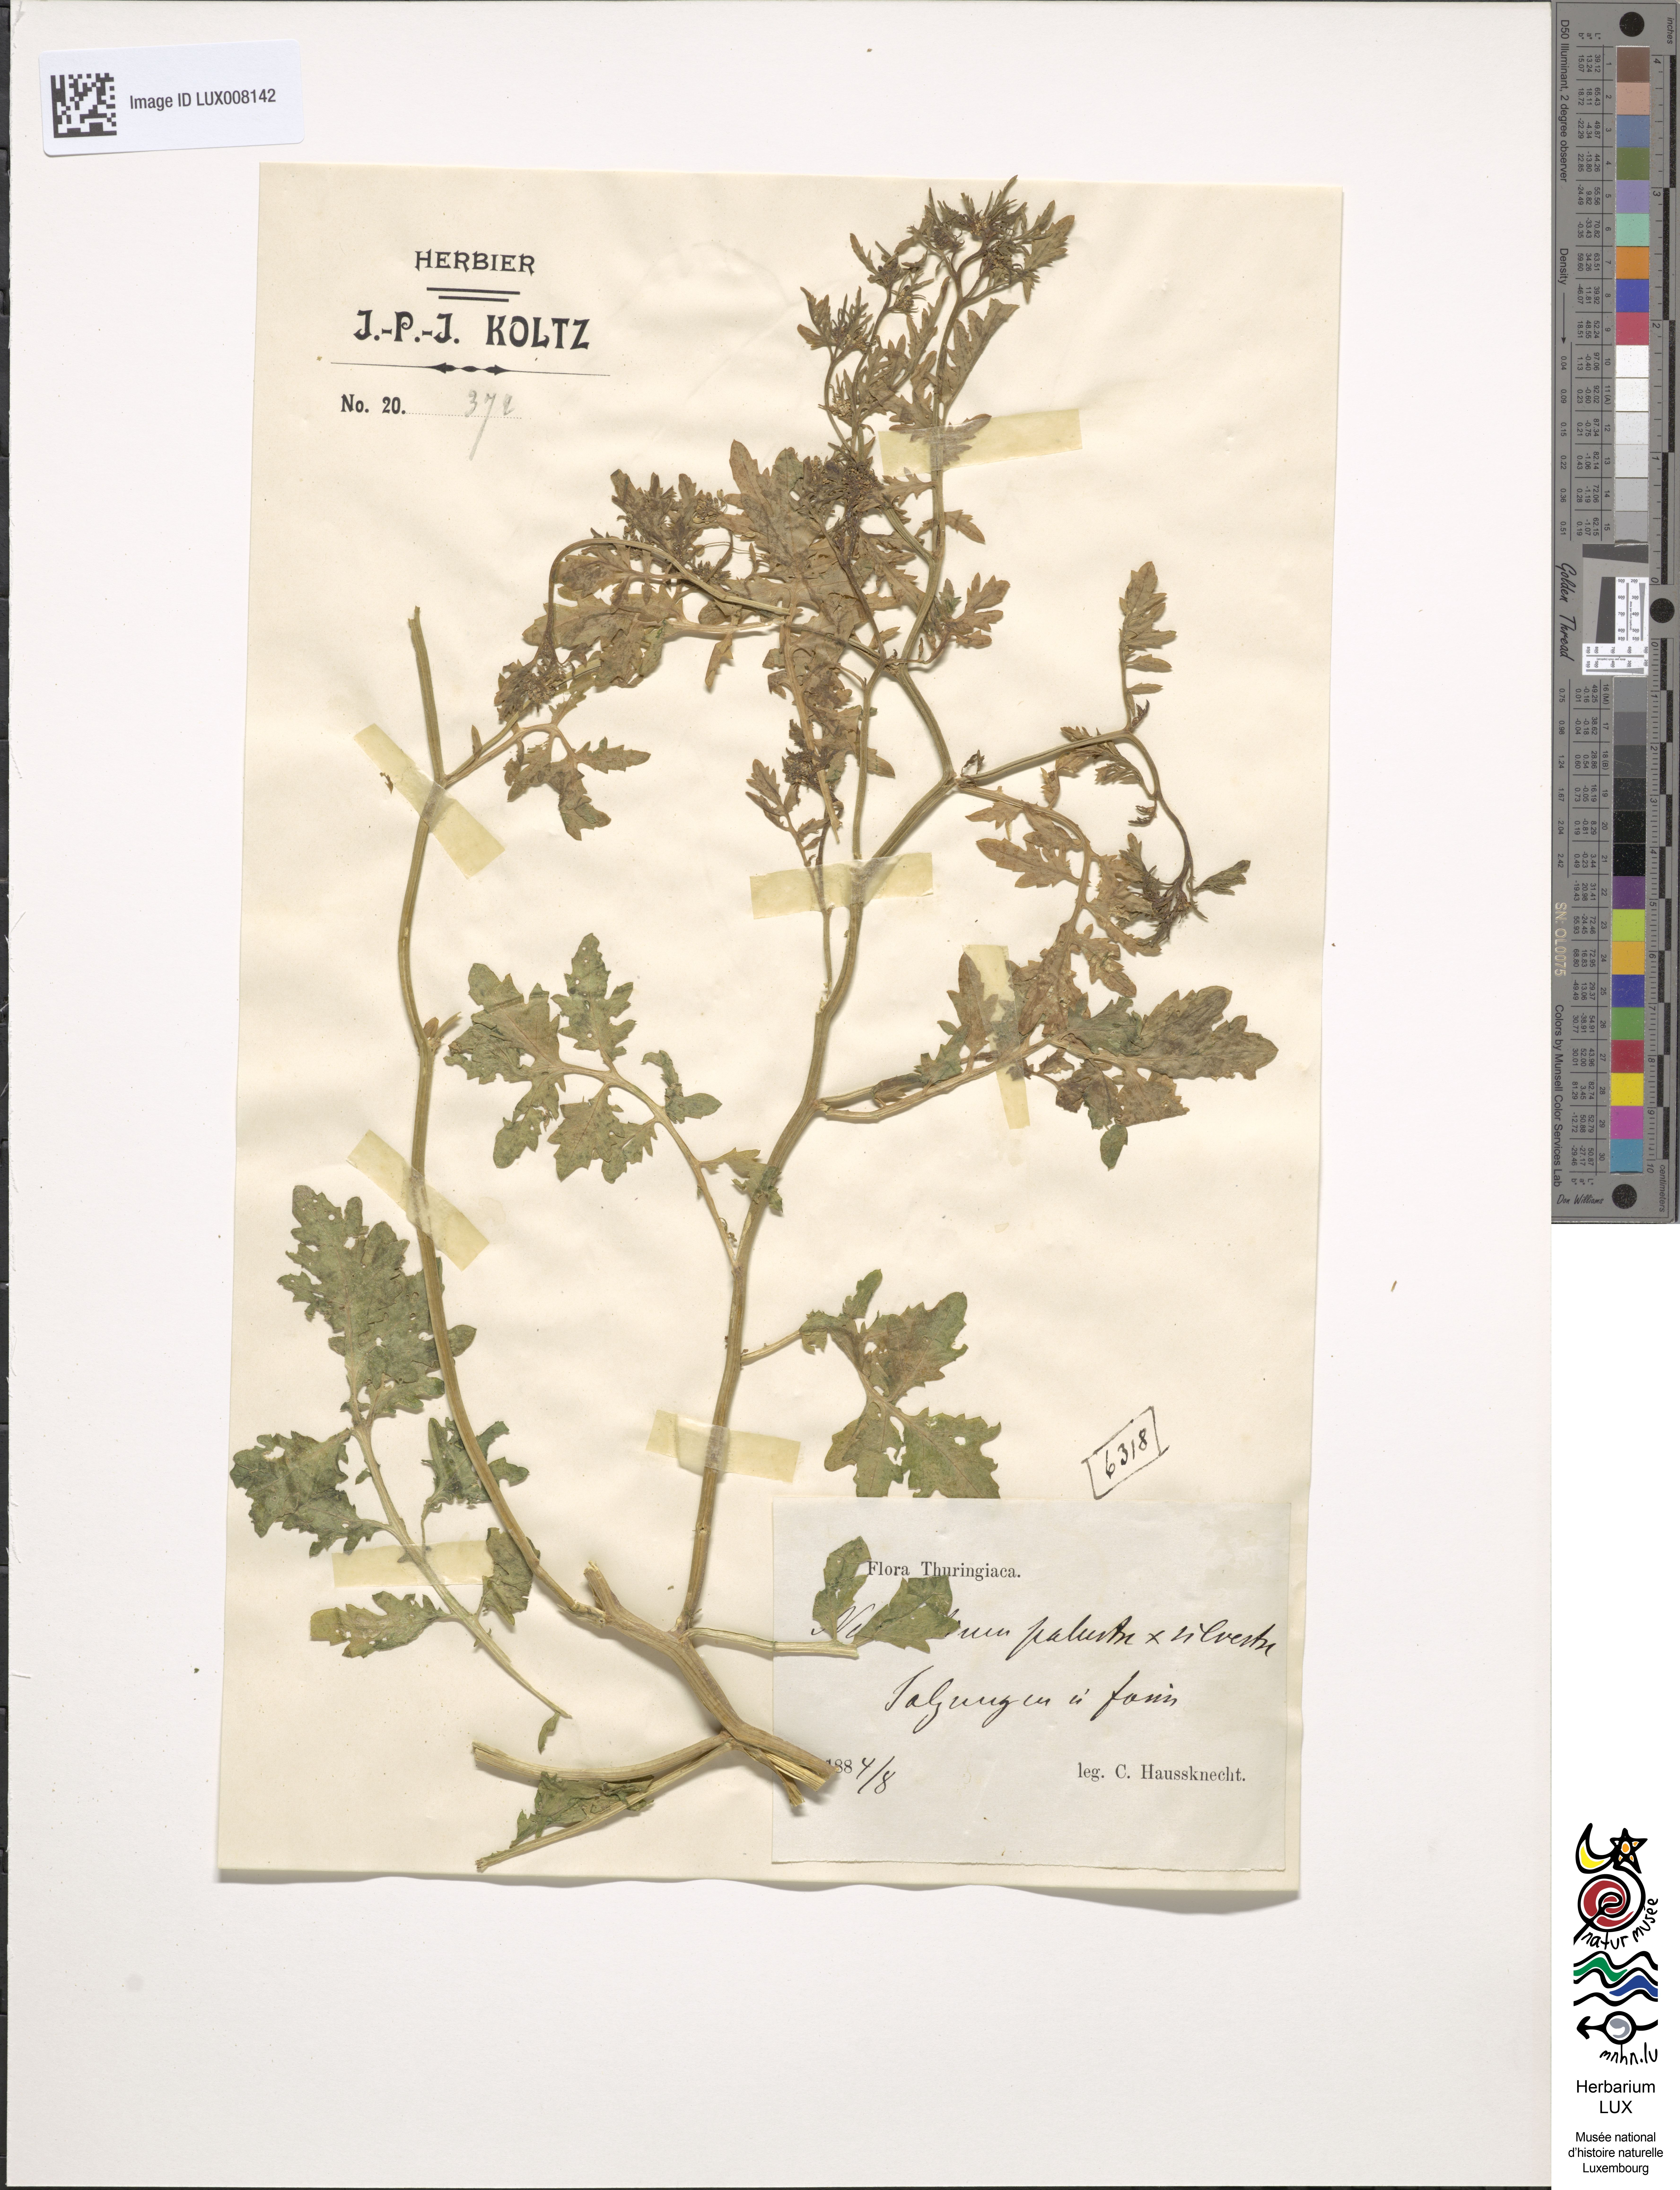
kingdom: Plantae
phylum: Tracheophyta
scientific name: Tracheophyta
